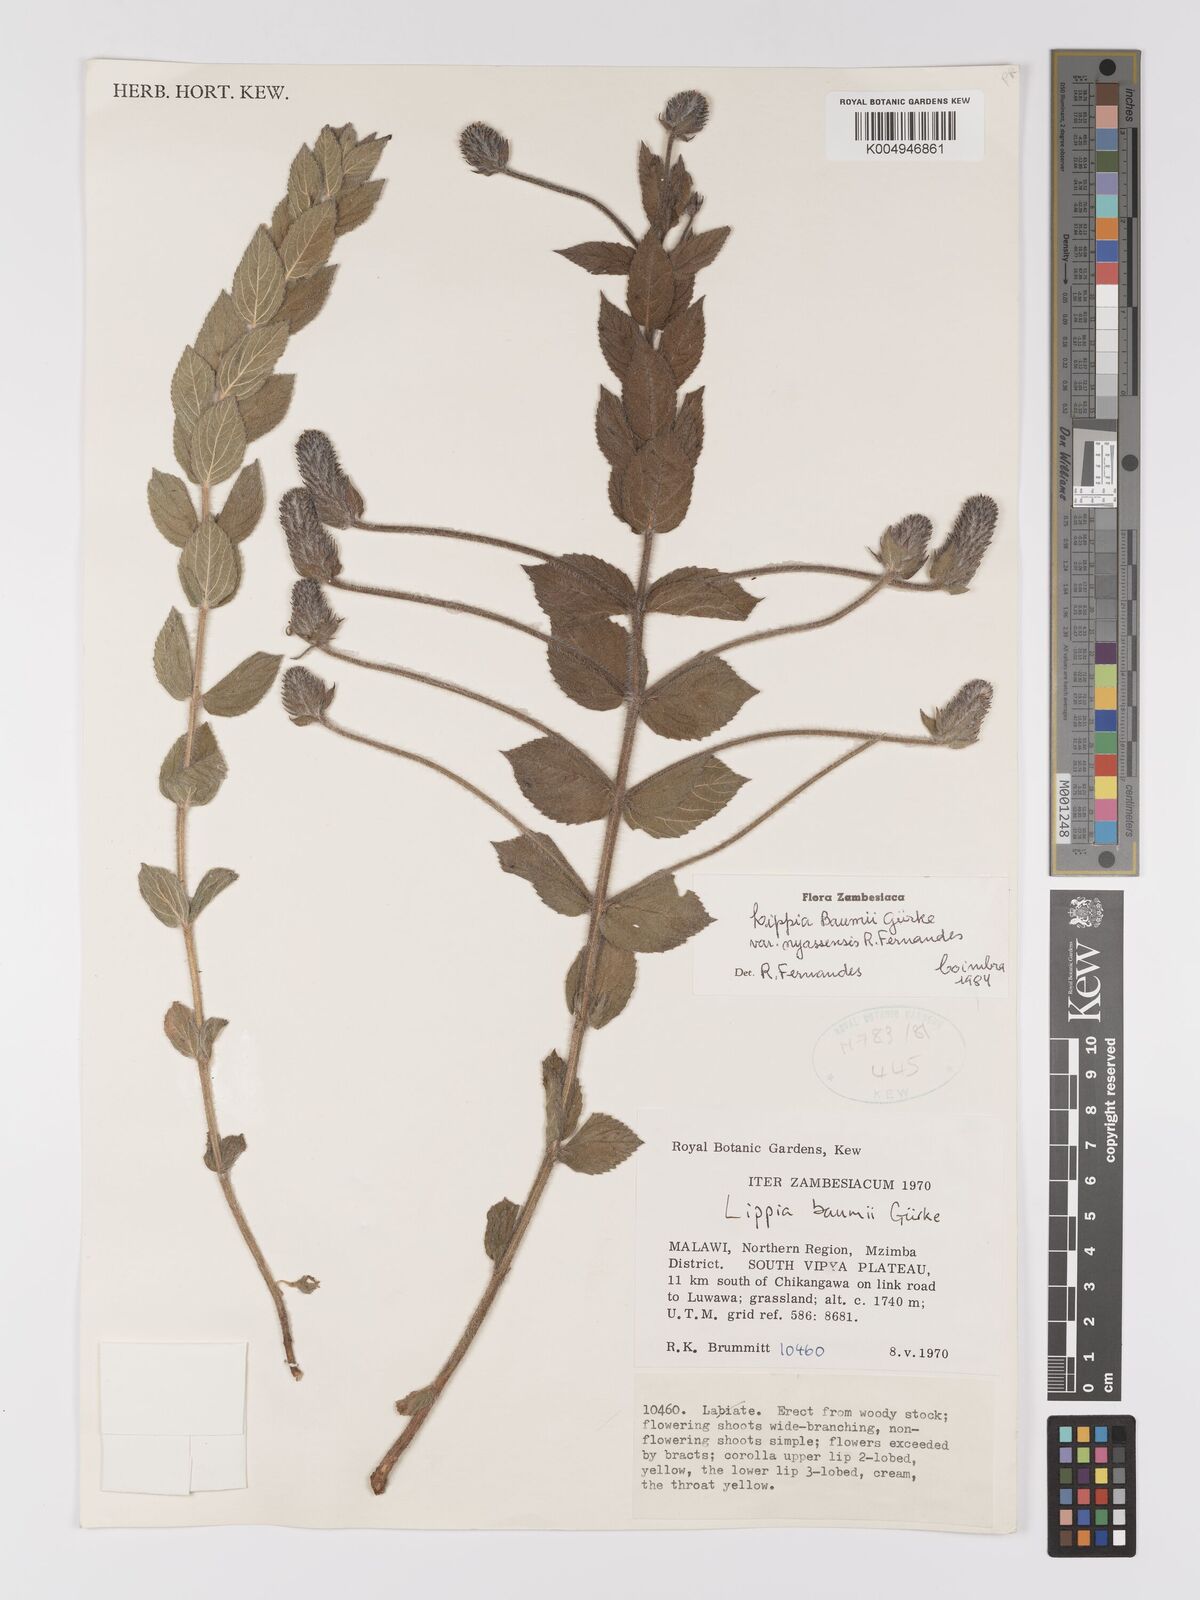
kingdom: Plantae
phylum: Tracheophyta
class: Magnoliopsida
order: Lamiales
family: Verbenaceae
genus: Lippia
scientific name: Lippia baumii
